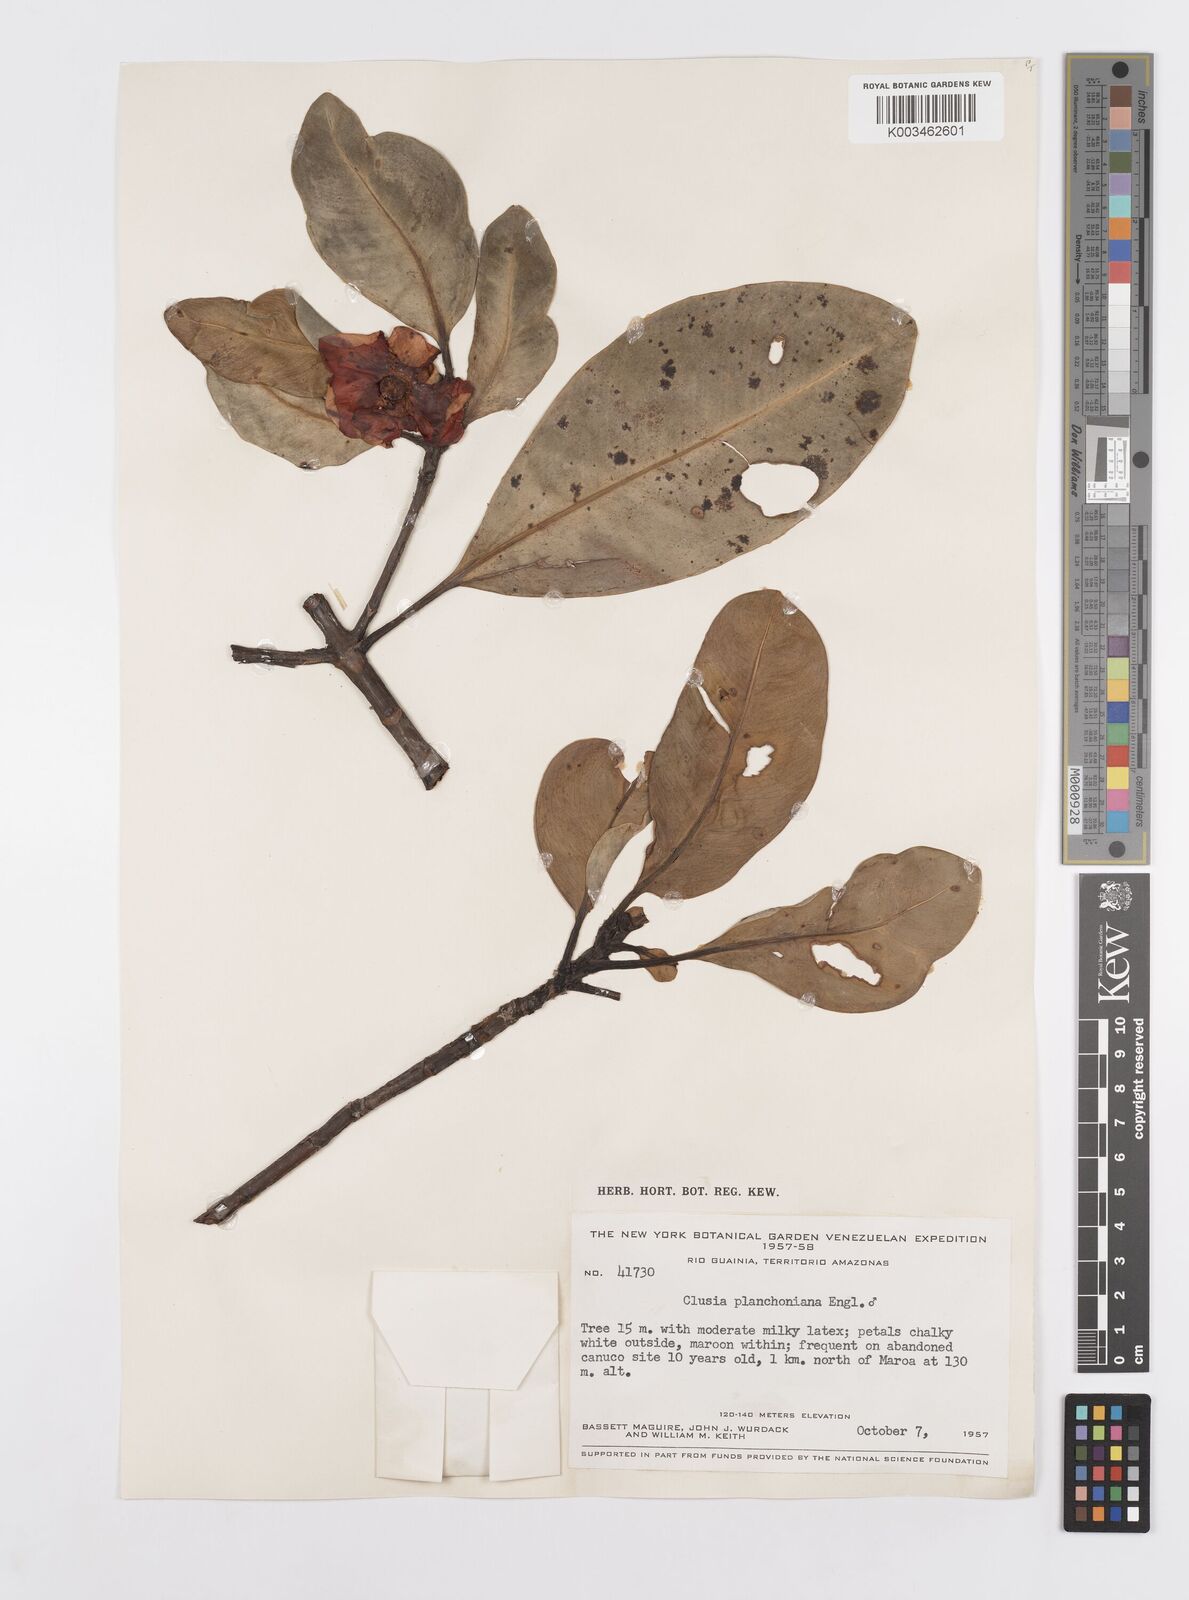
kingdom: Plantae
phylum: Tracheophyta
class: Magnoliopsida
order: Malpighiales
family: Clusiaceae
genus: Clusia
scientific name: Clusia planchoniana
